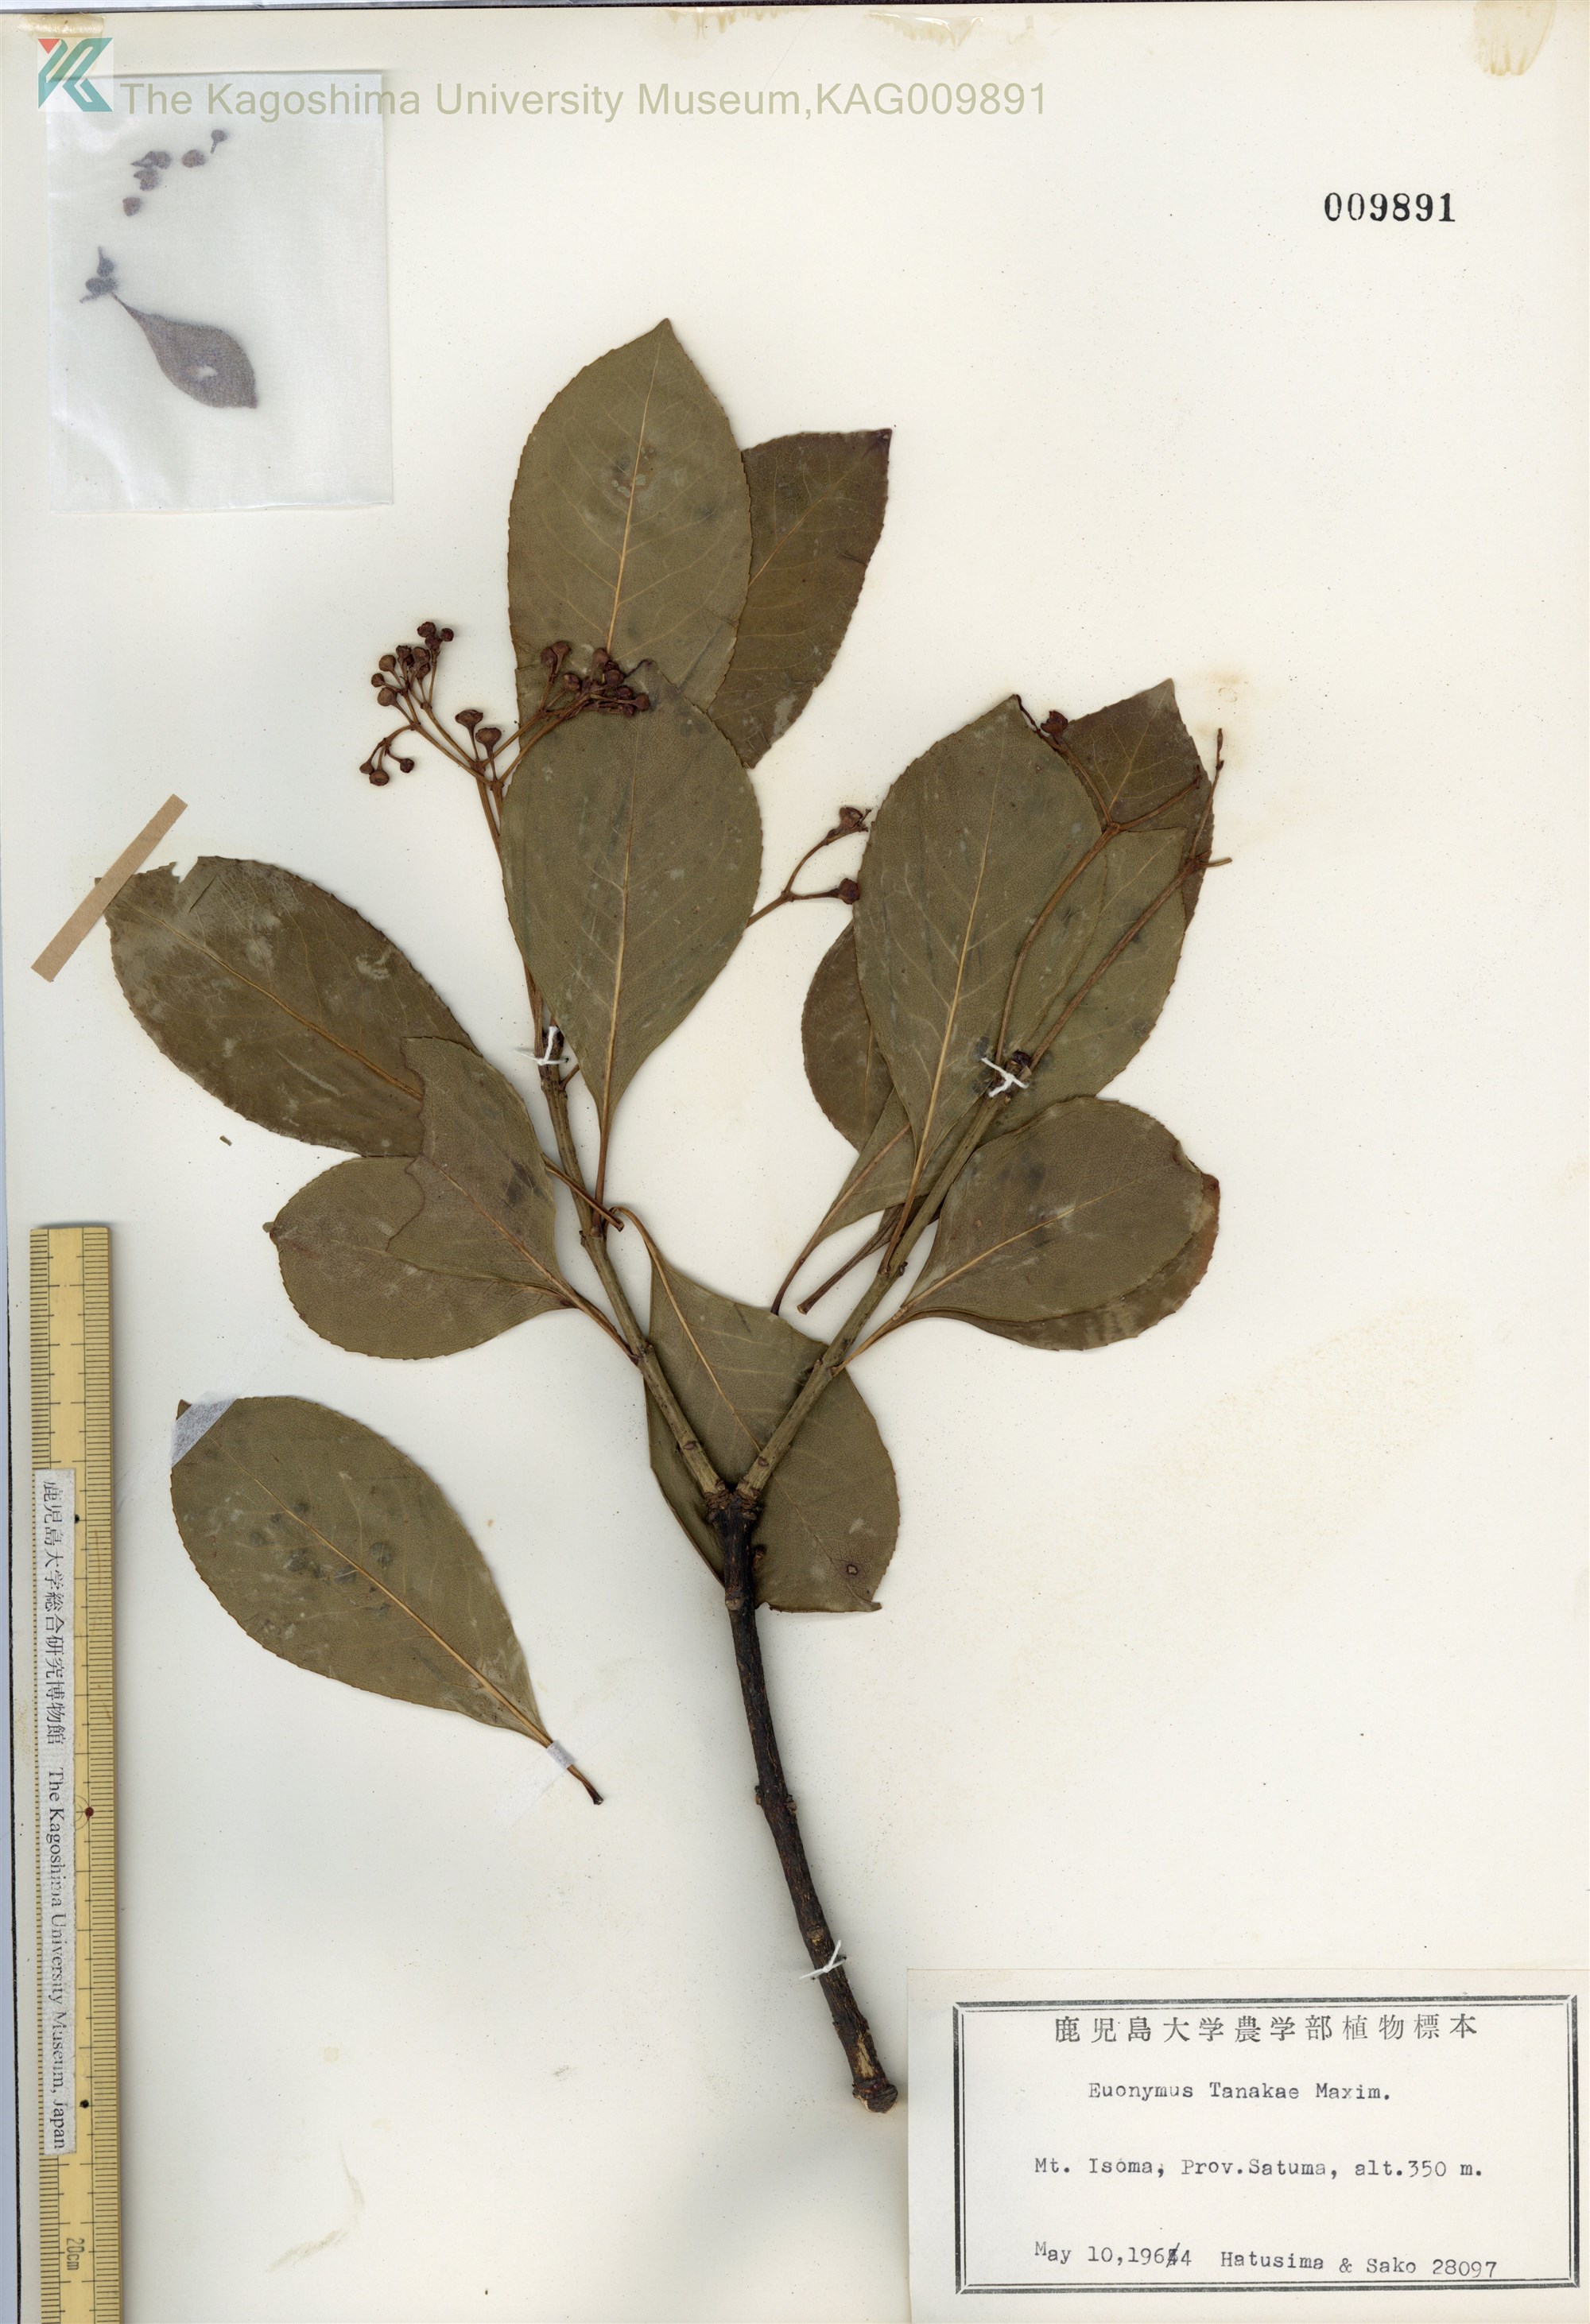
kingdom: Plantae
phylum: Tracheophyta
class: Magnoliopsida
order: Celastrales
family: Celastraceae
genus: Euonymus
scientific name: Euonymus carnosus
